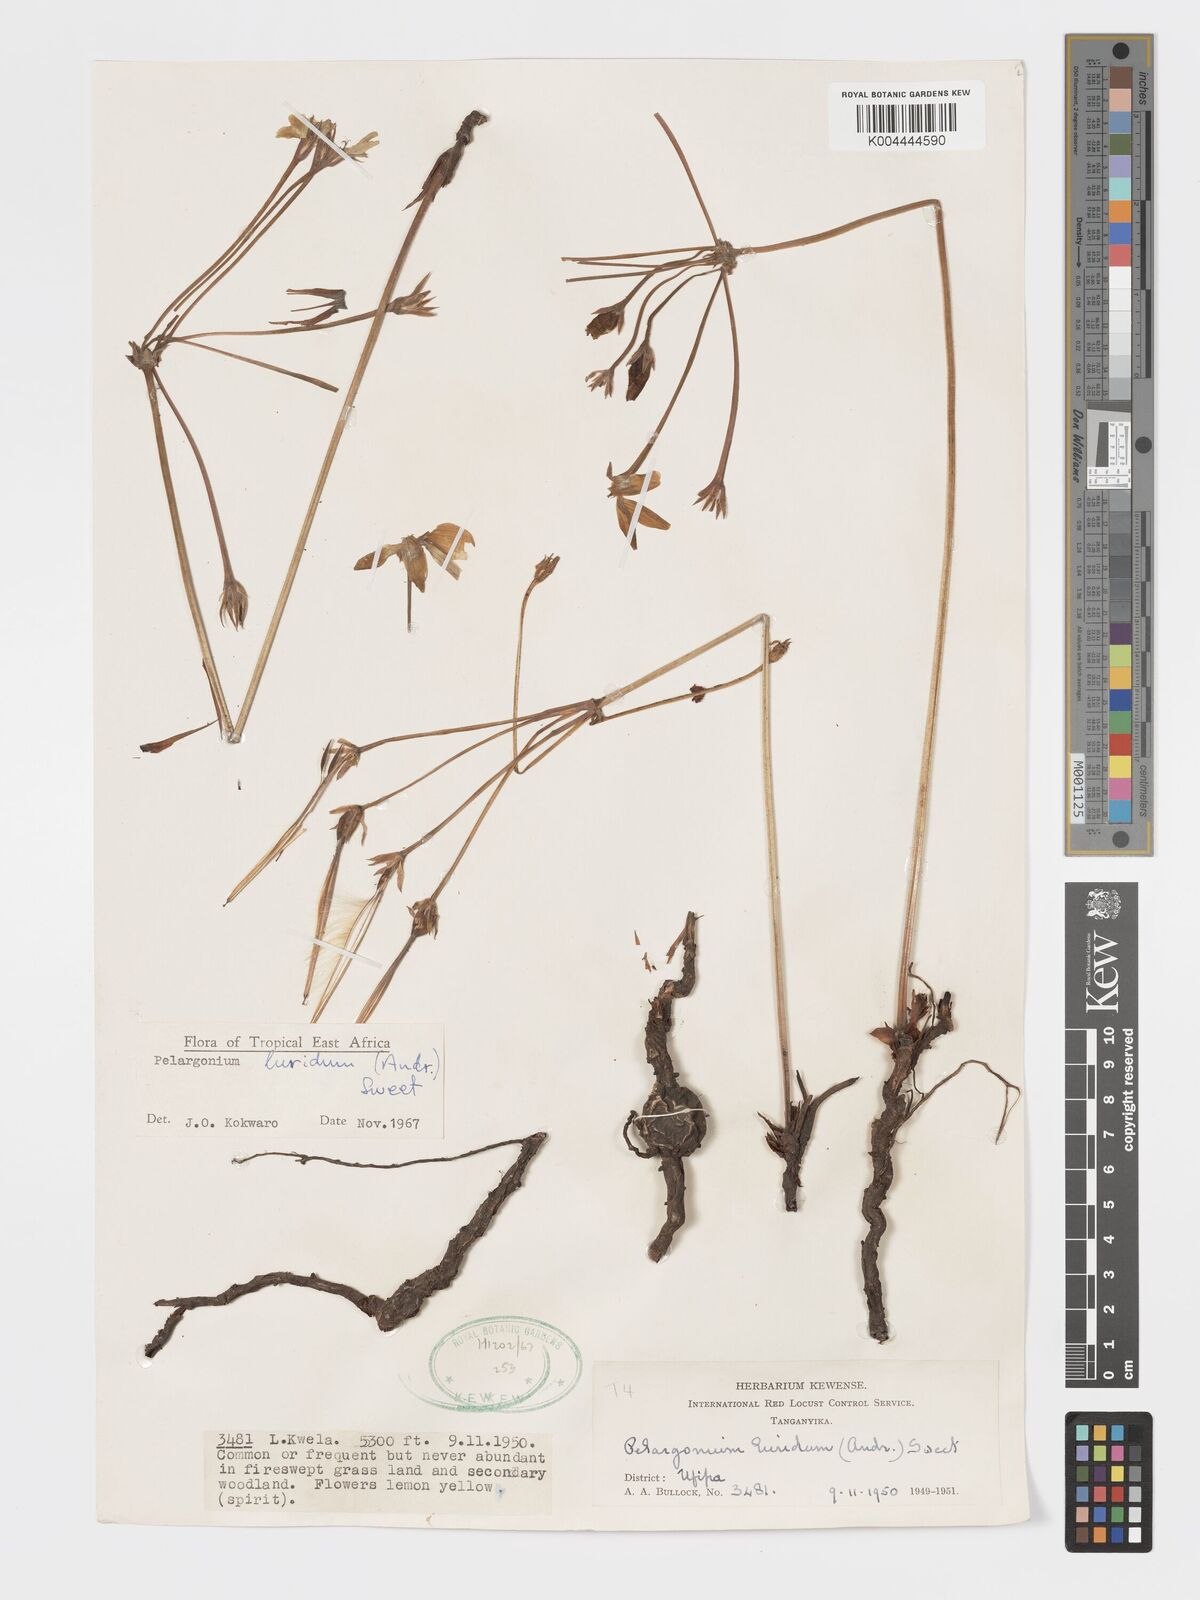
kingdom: Plantae
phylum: Tracheophyta
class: Magnoliopsida
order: Geraniales
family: Geraniaceae
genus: Pelargonium
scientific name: Pelargonium luridum
